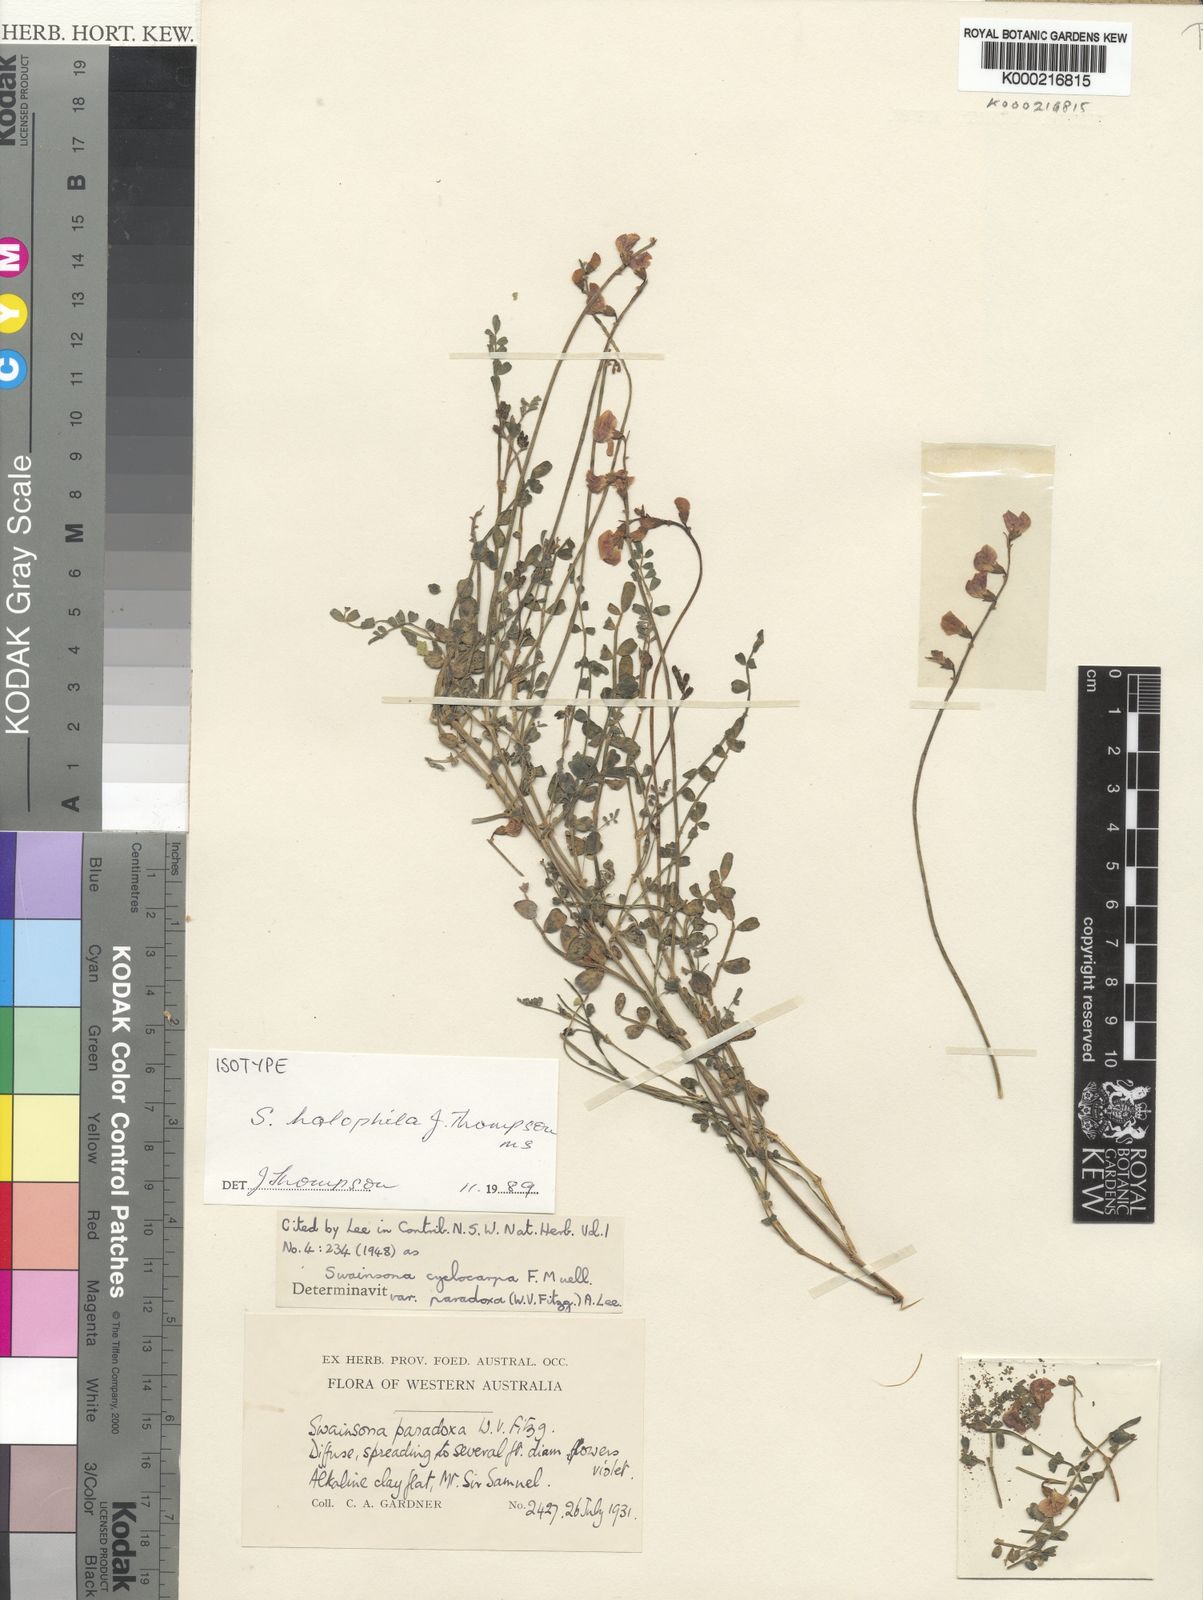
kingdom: Plantae
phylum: Tracheophyta
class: Magnoliopsida
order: Fabales
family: Fabaceae
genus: Swainsona
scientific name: Swainsona halophila
